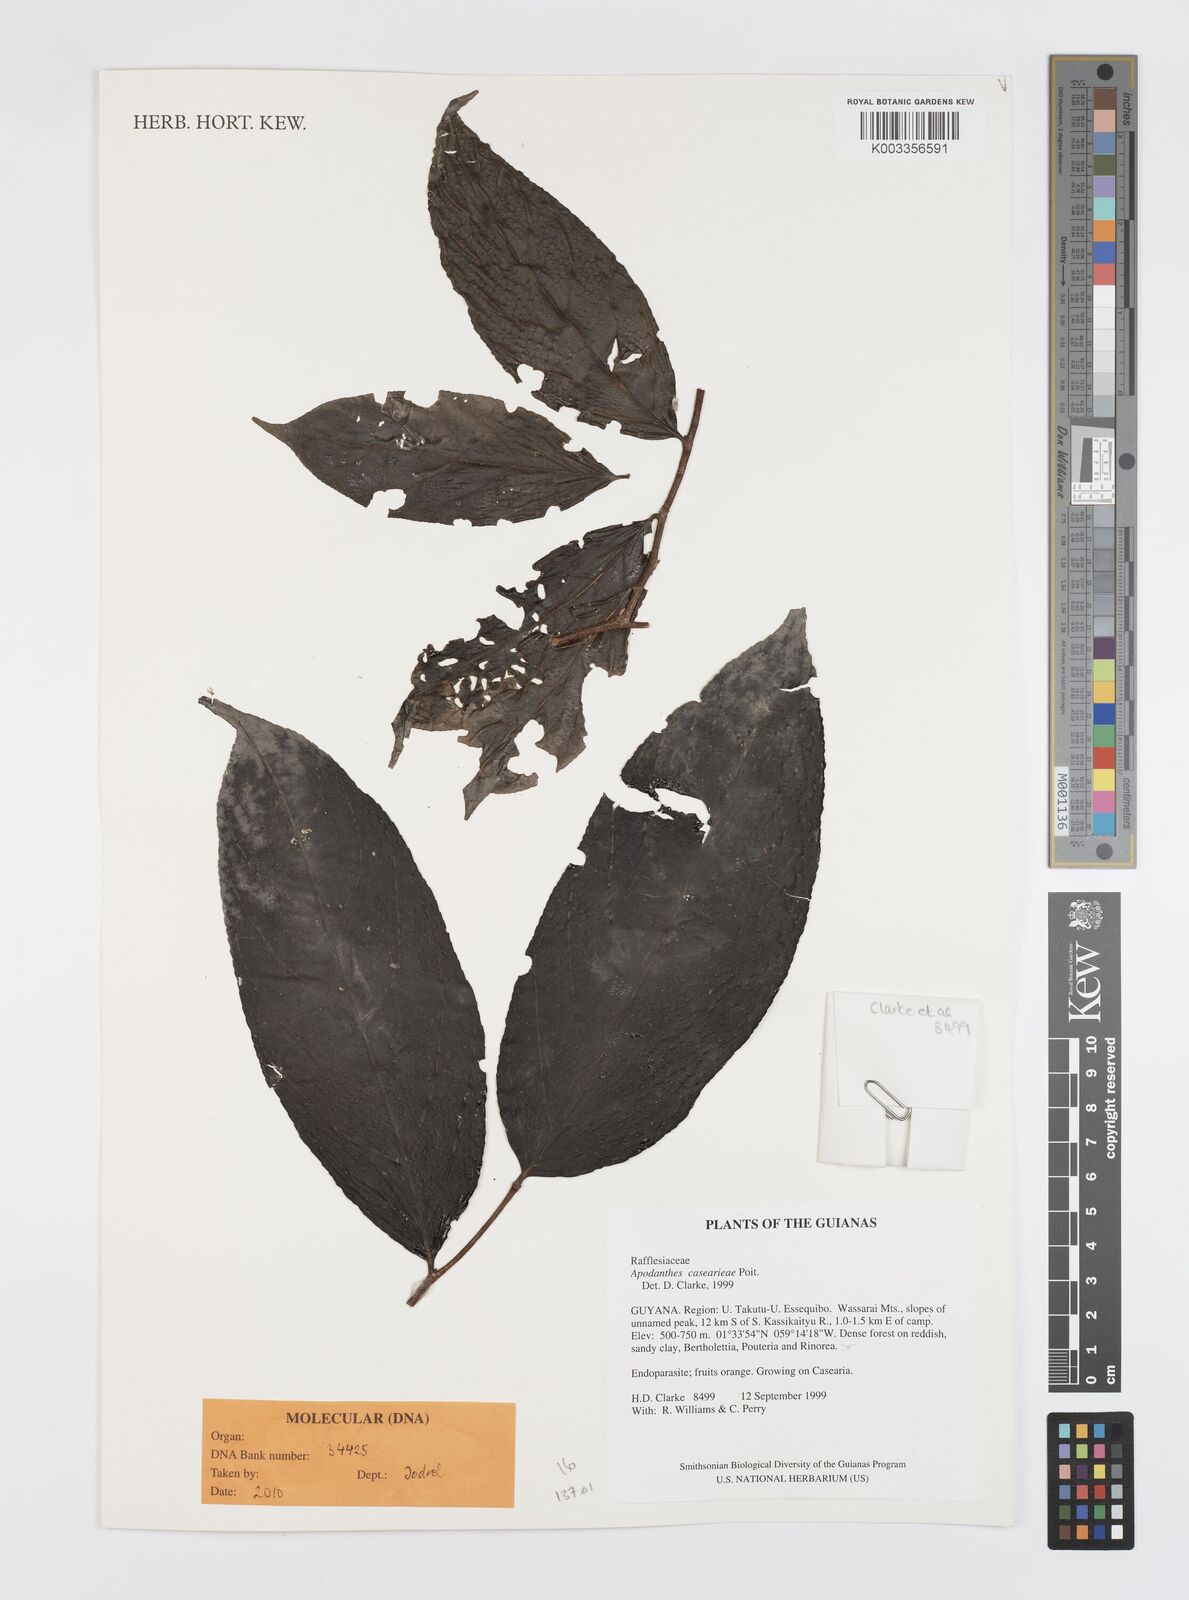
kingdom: Plantae
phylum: Tracheophyta
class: Magnoliopsida
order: Cucurbitales
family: Apodanthaceae
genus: Apodanthes
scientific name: Apodanthes caseariae
